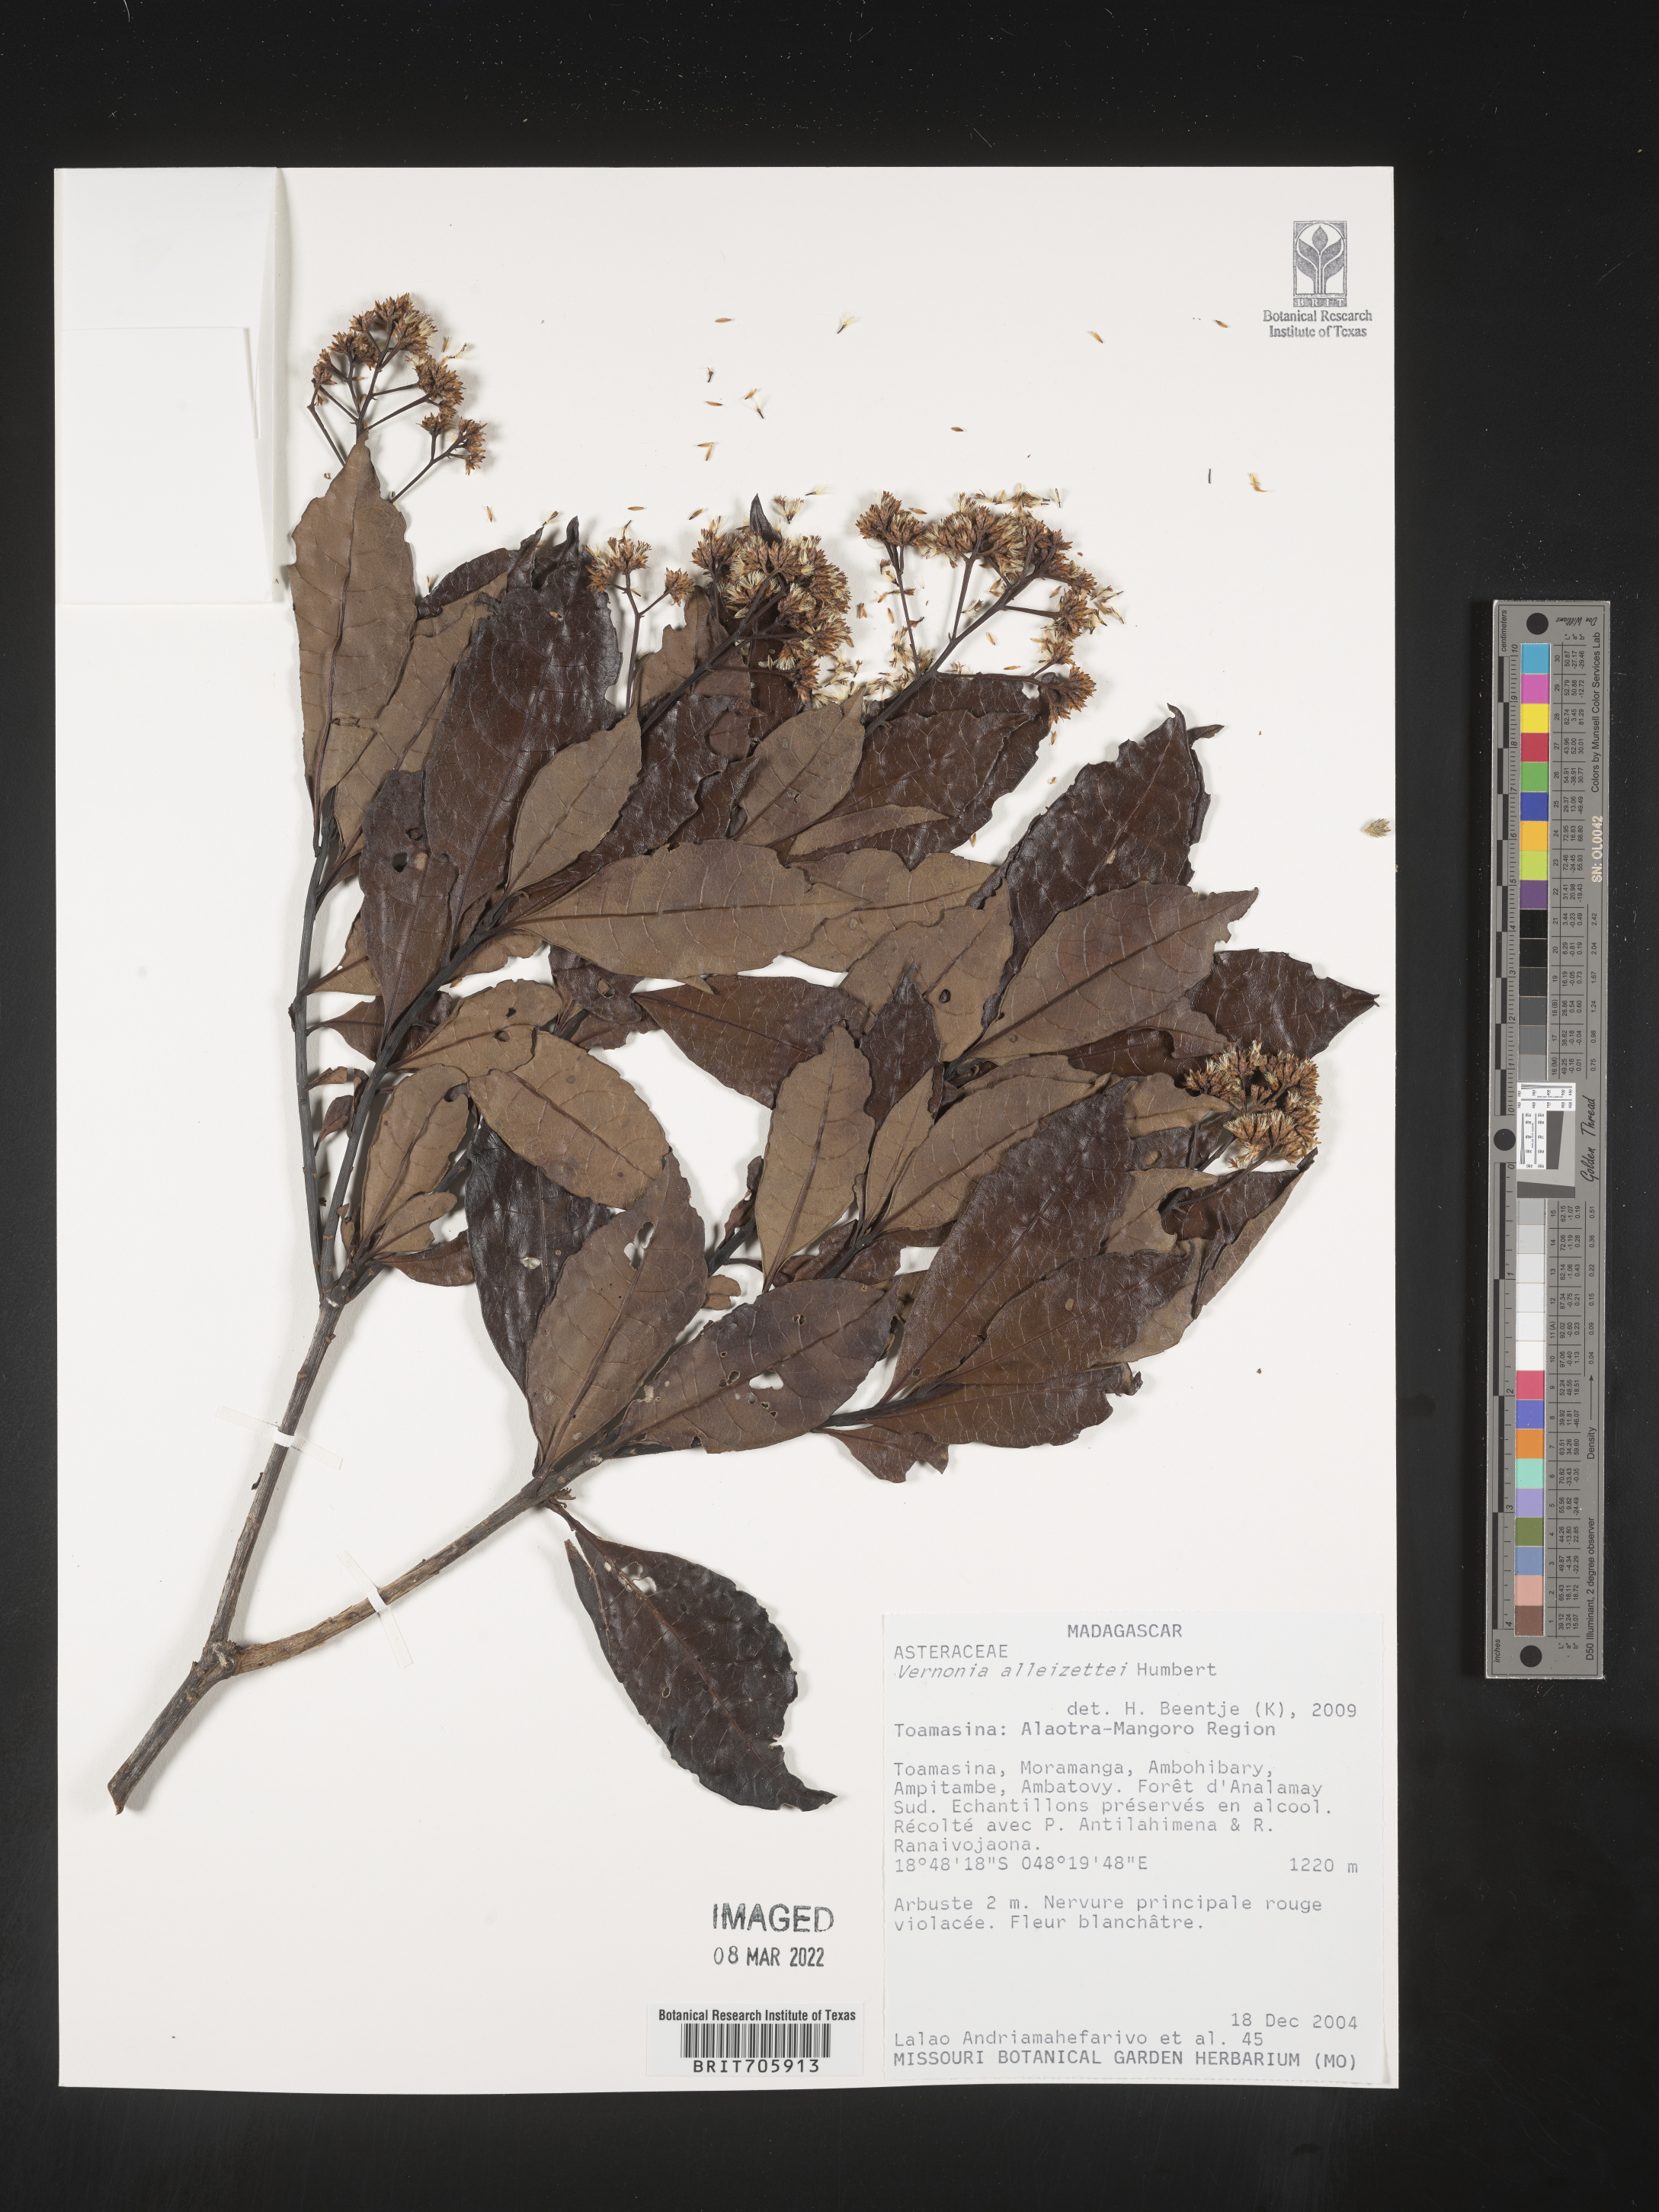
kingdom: Plantae
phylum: Tracheophyta
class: Magnoliopsida
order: Asterales
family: Asteraceae
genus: Vernonia
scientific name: Vernonia
